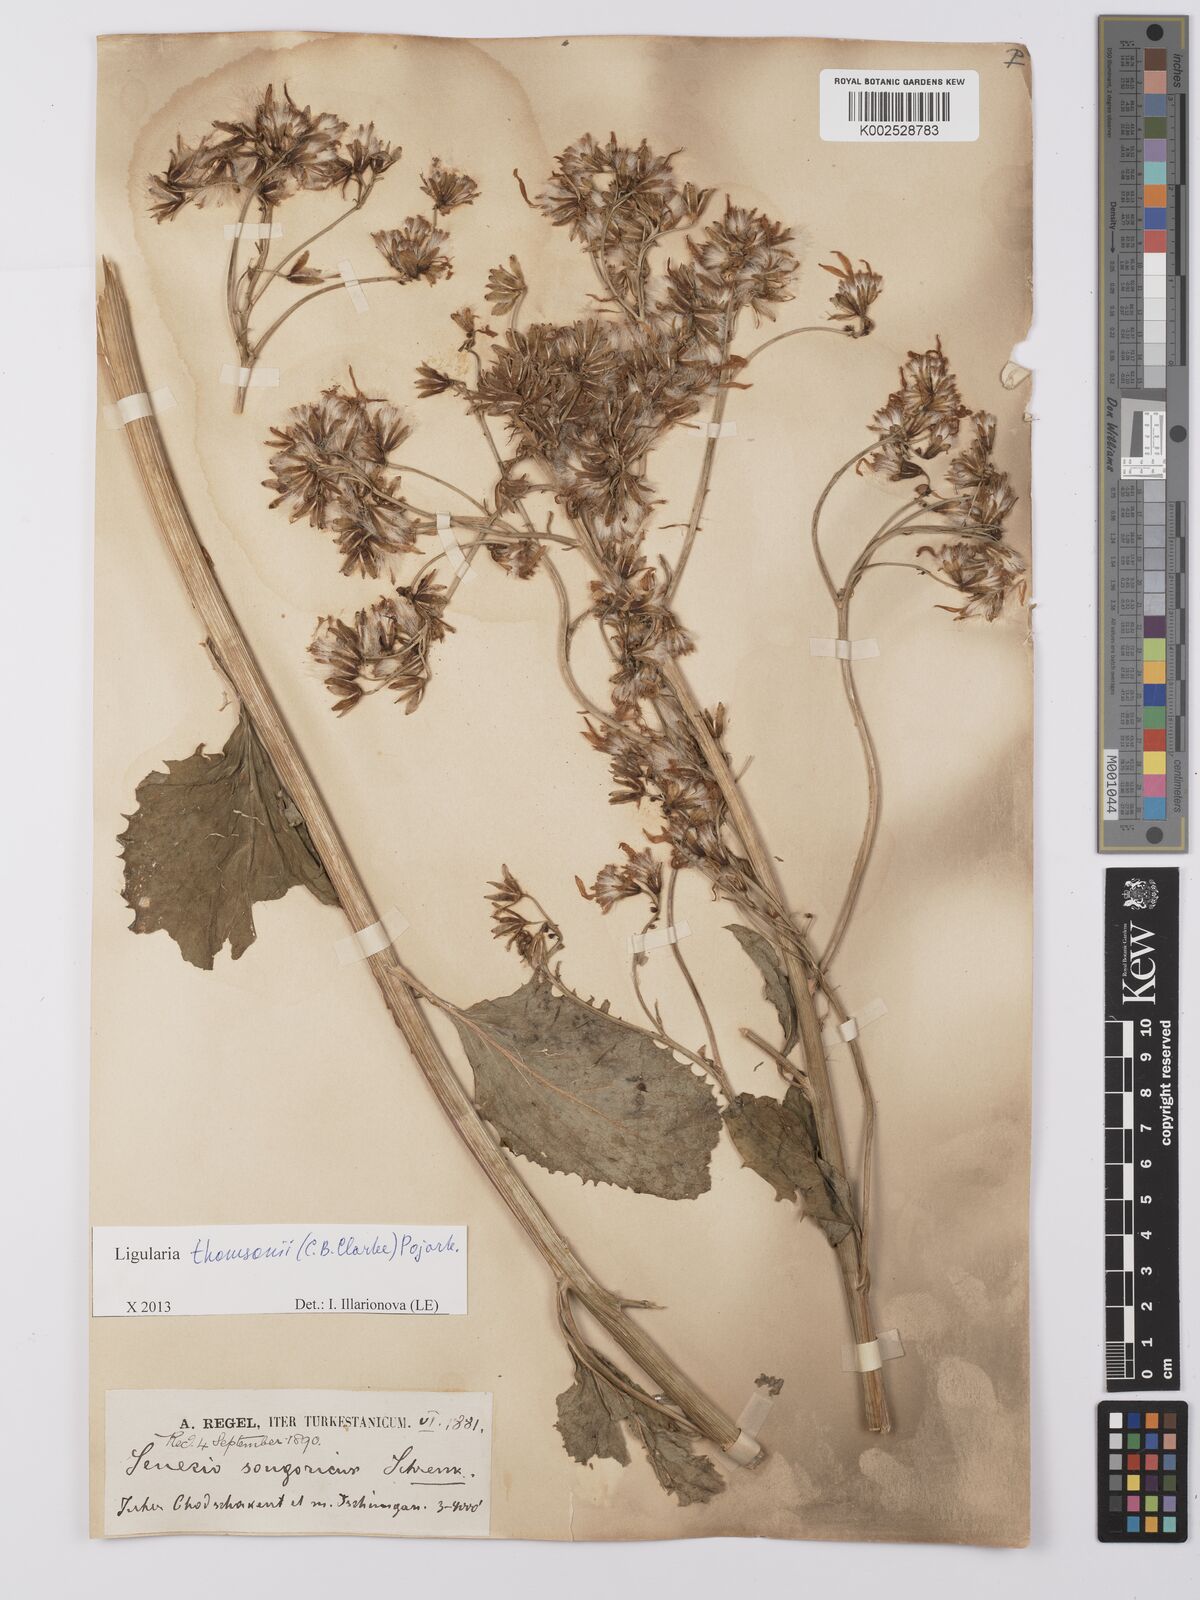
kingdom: Plantae
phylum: Tracheophyta
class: Magnoliopsida
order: Asterales
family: Asteraceae
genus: Vickifunkia
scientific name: Vickifunkia thomsonii
